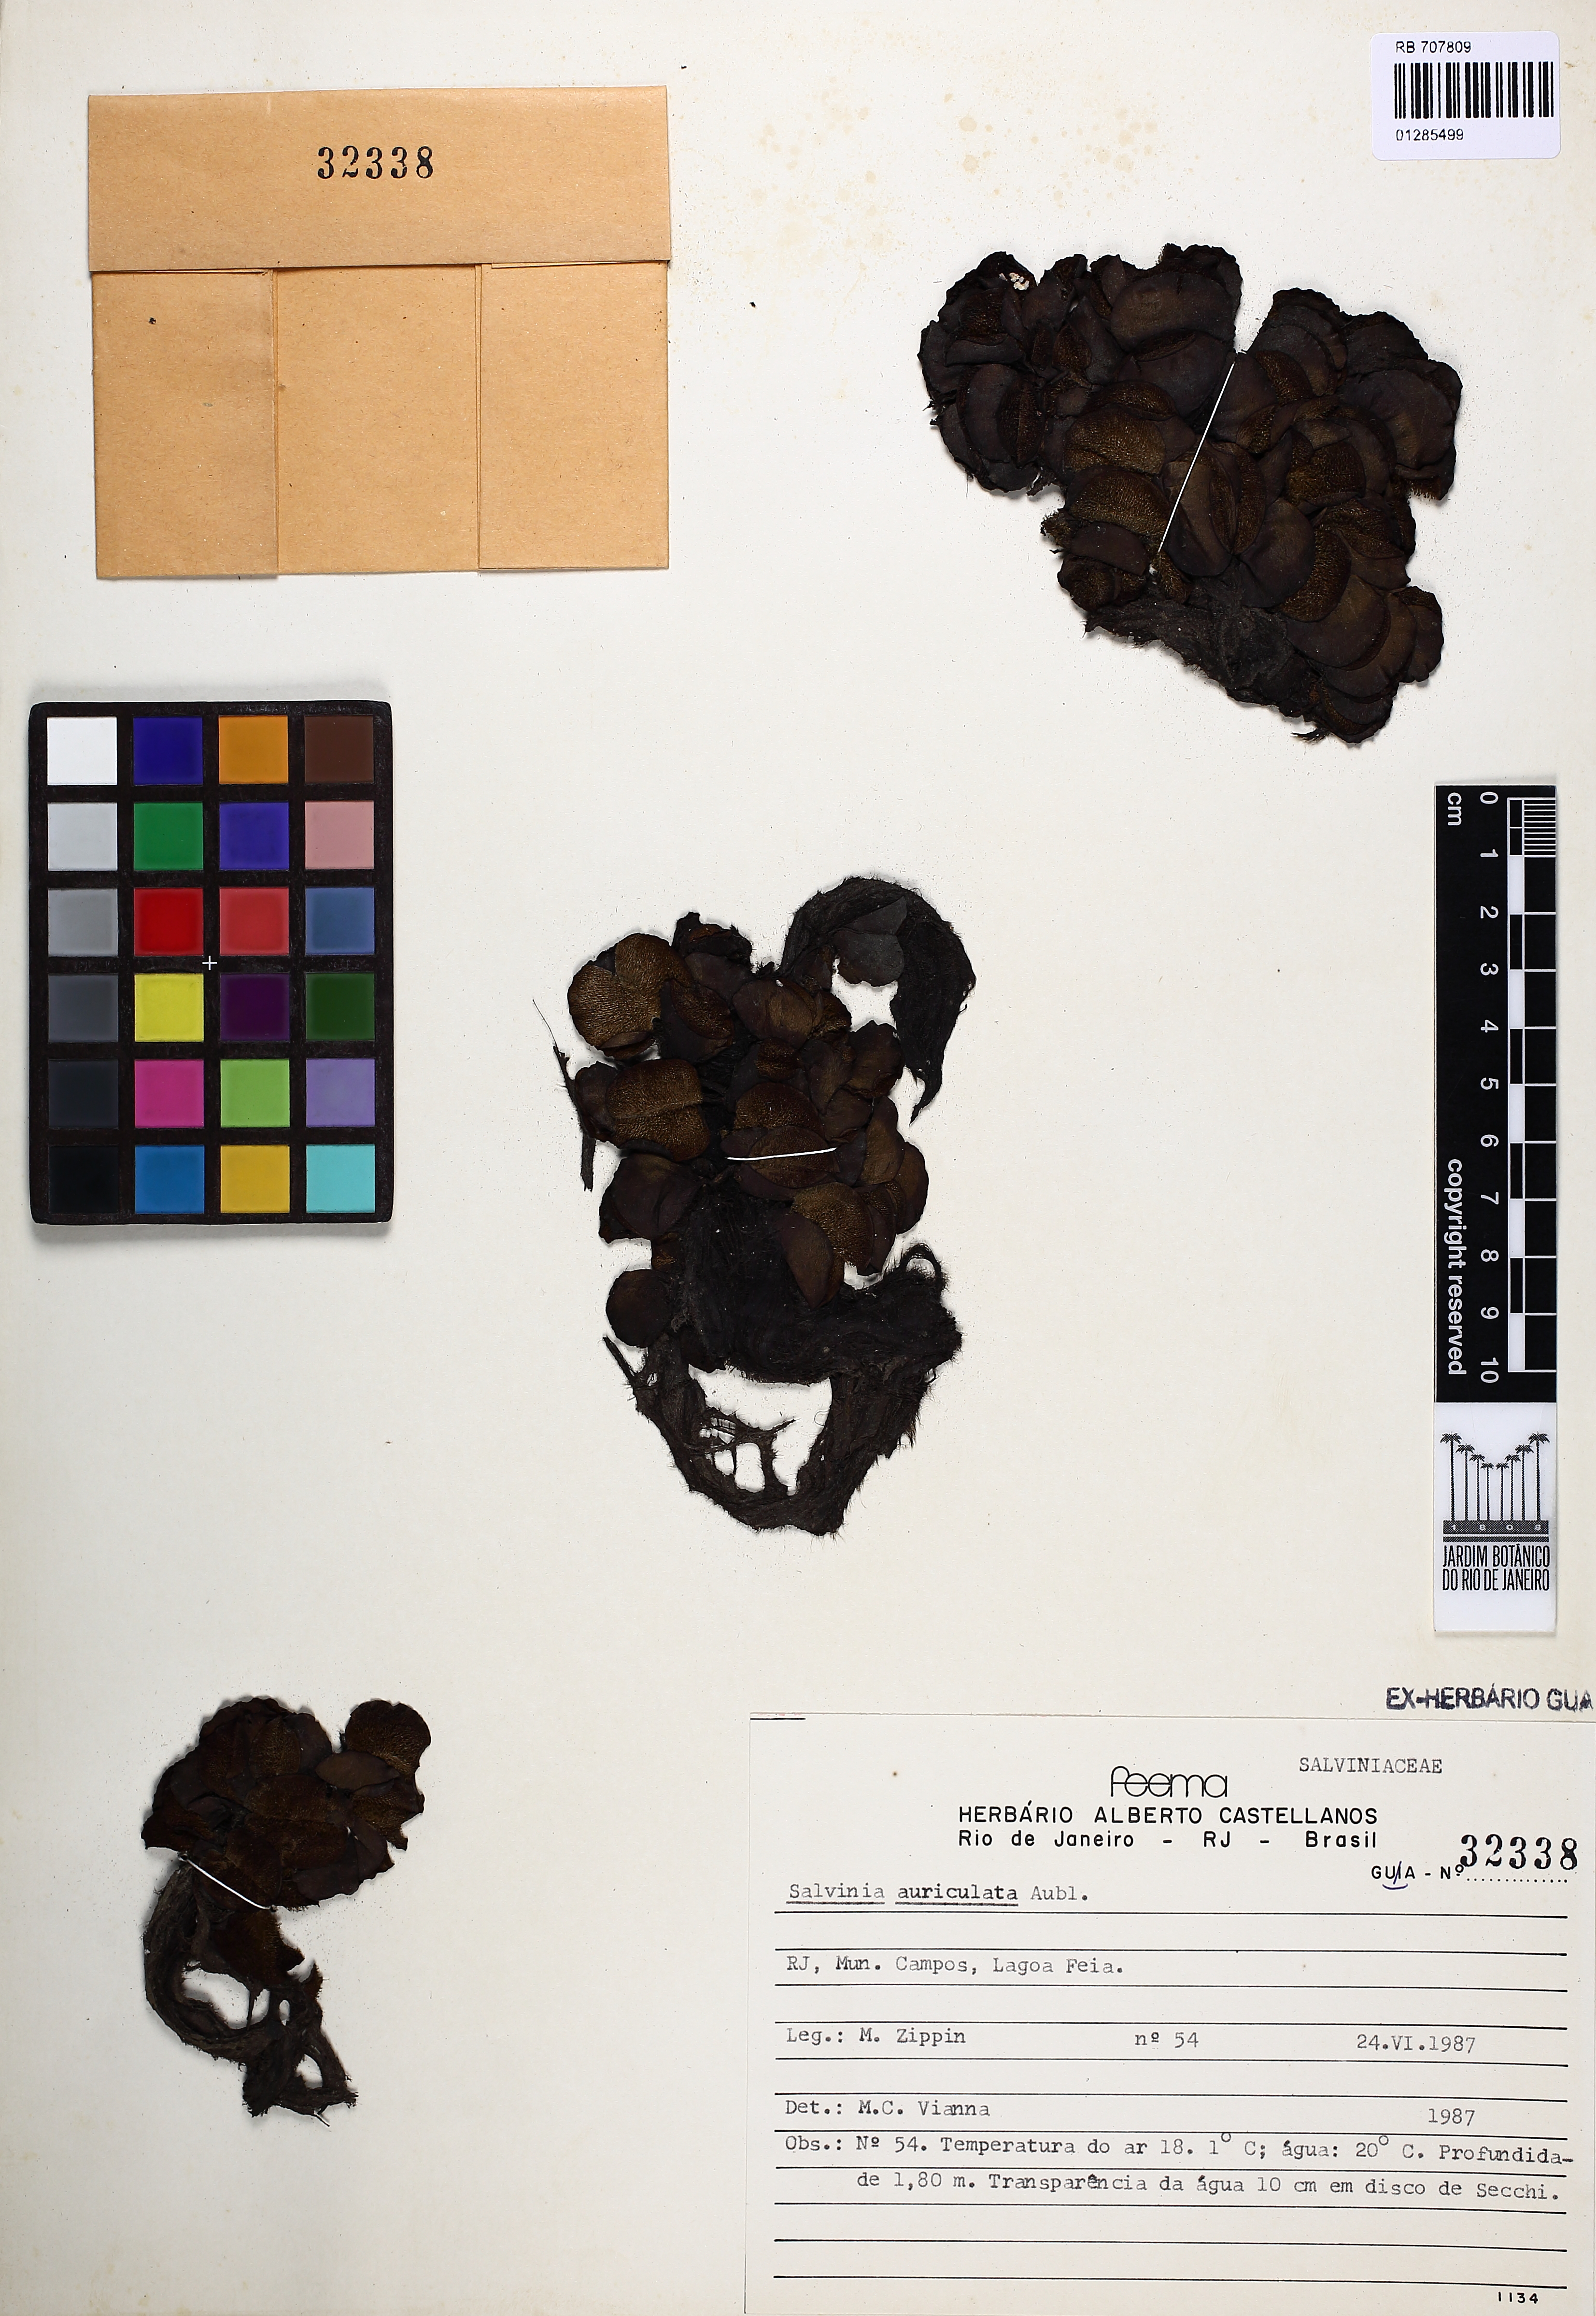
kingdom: Plantae
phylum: Tracheophyta
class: Polypodiopsida
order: Salviniales
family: Salviniaceae
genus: Salvinia
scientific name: Salvinia auriculata
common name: African payal
